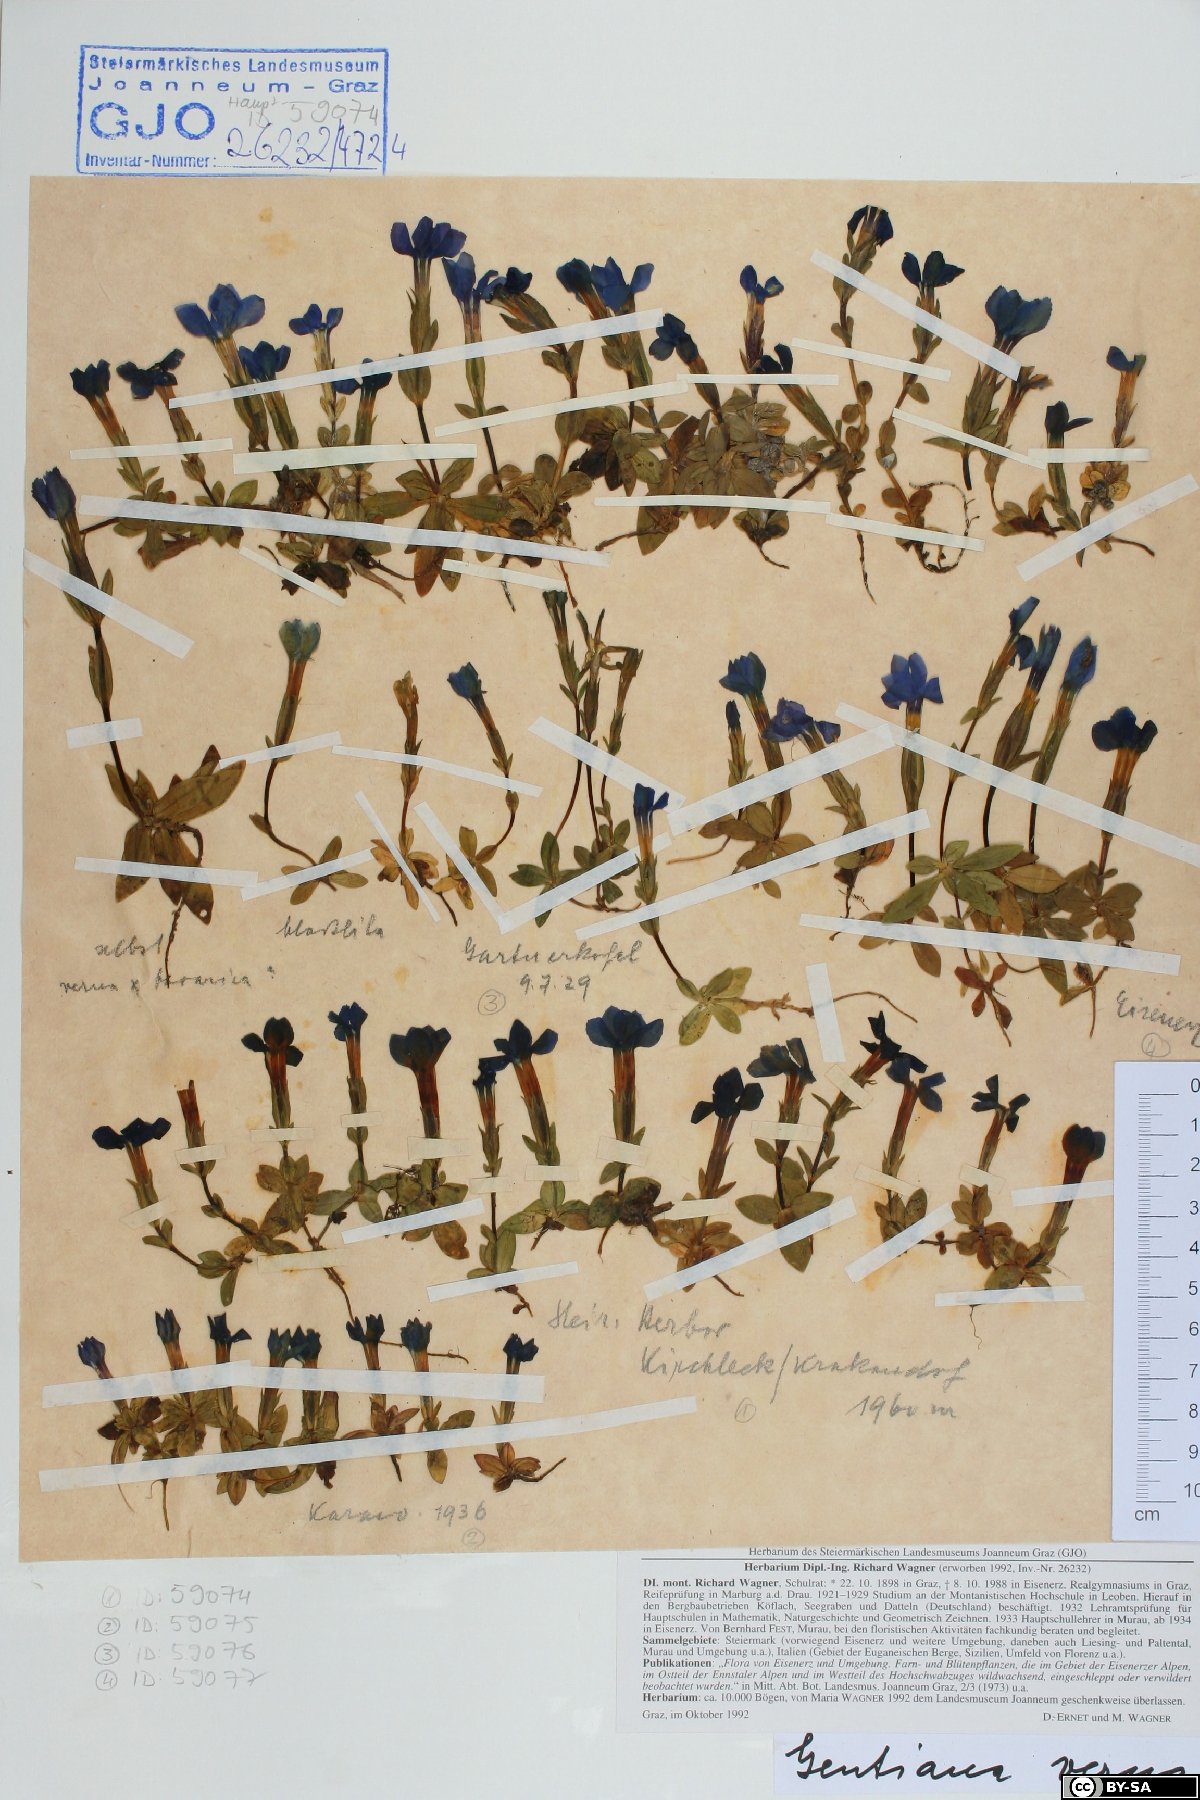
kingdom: Plantae
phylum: Tracheophyta
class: Magnoliopsida
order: Gentianales
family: Gentianaceae
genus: Gentiana
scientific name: Gentiana verna
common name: Spring gentian
